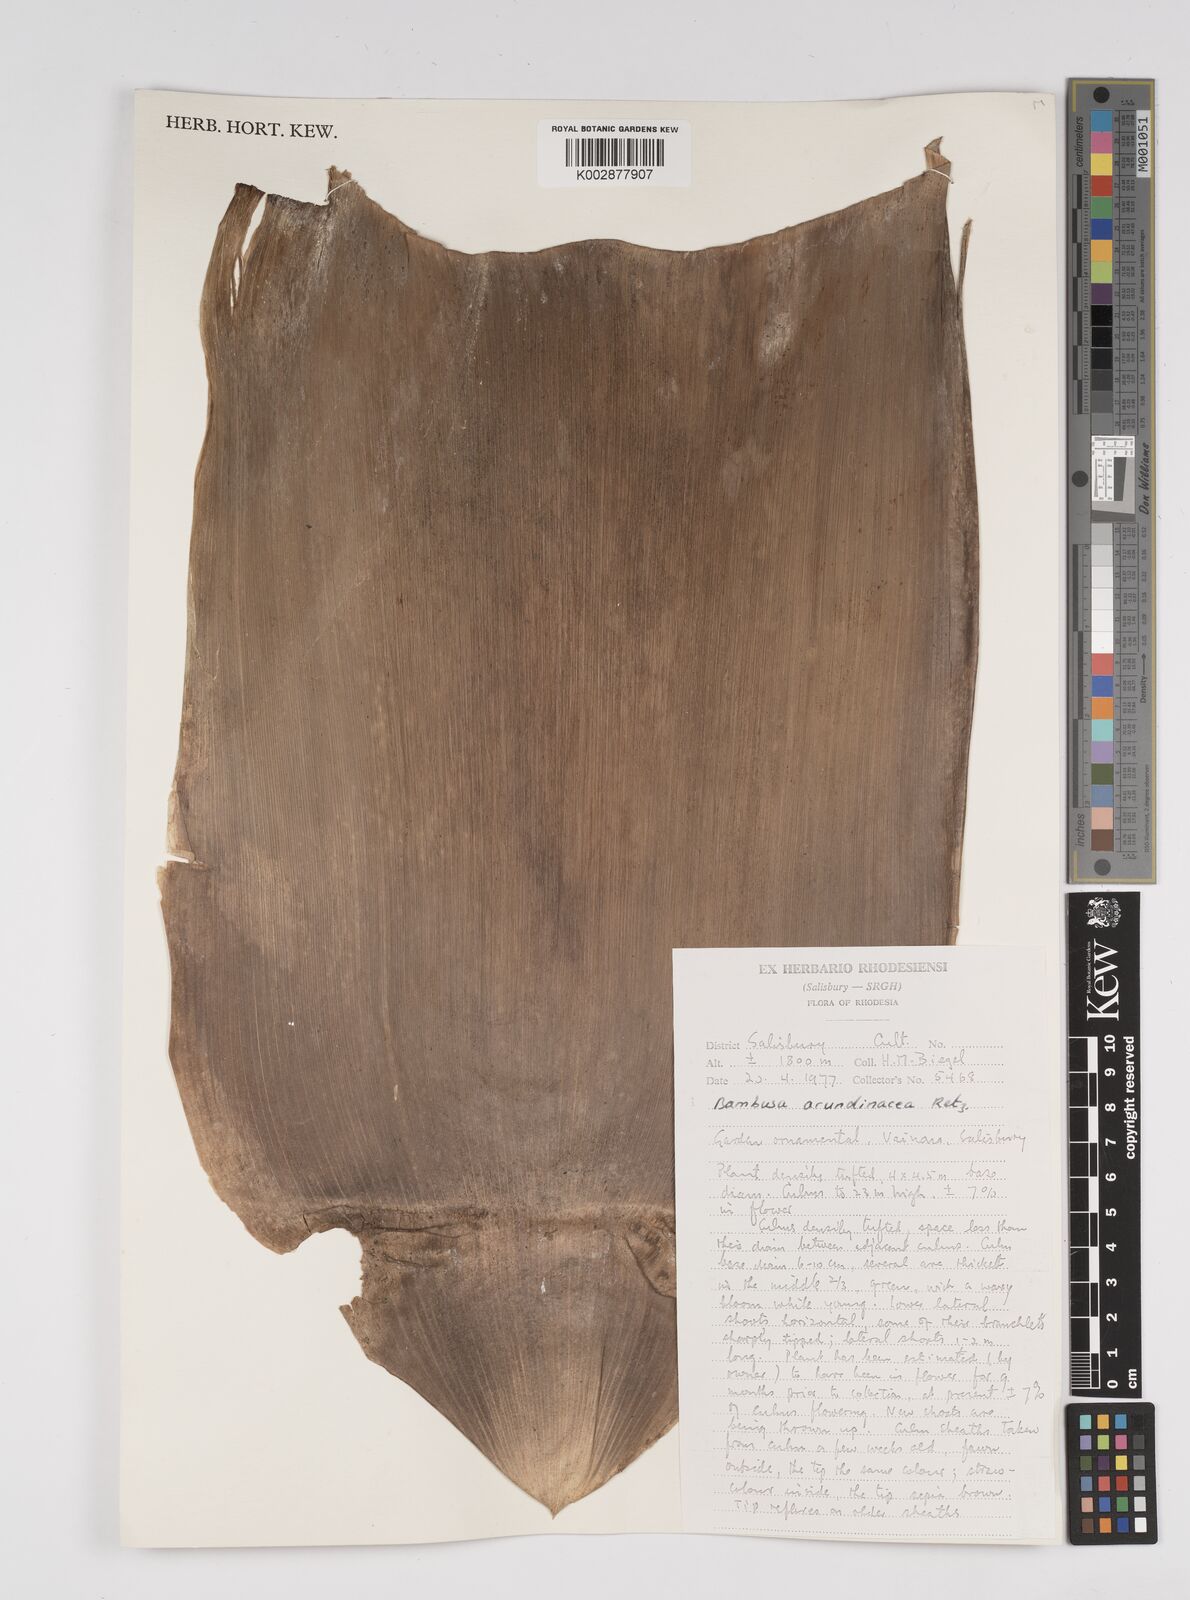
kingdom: Plantae
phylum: Tracheophyta
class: Liliopsida
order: Poales
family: Poaceae
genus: Bambusa
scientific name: Bambusa bambos
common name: Indian thorny bamboo
